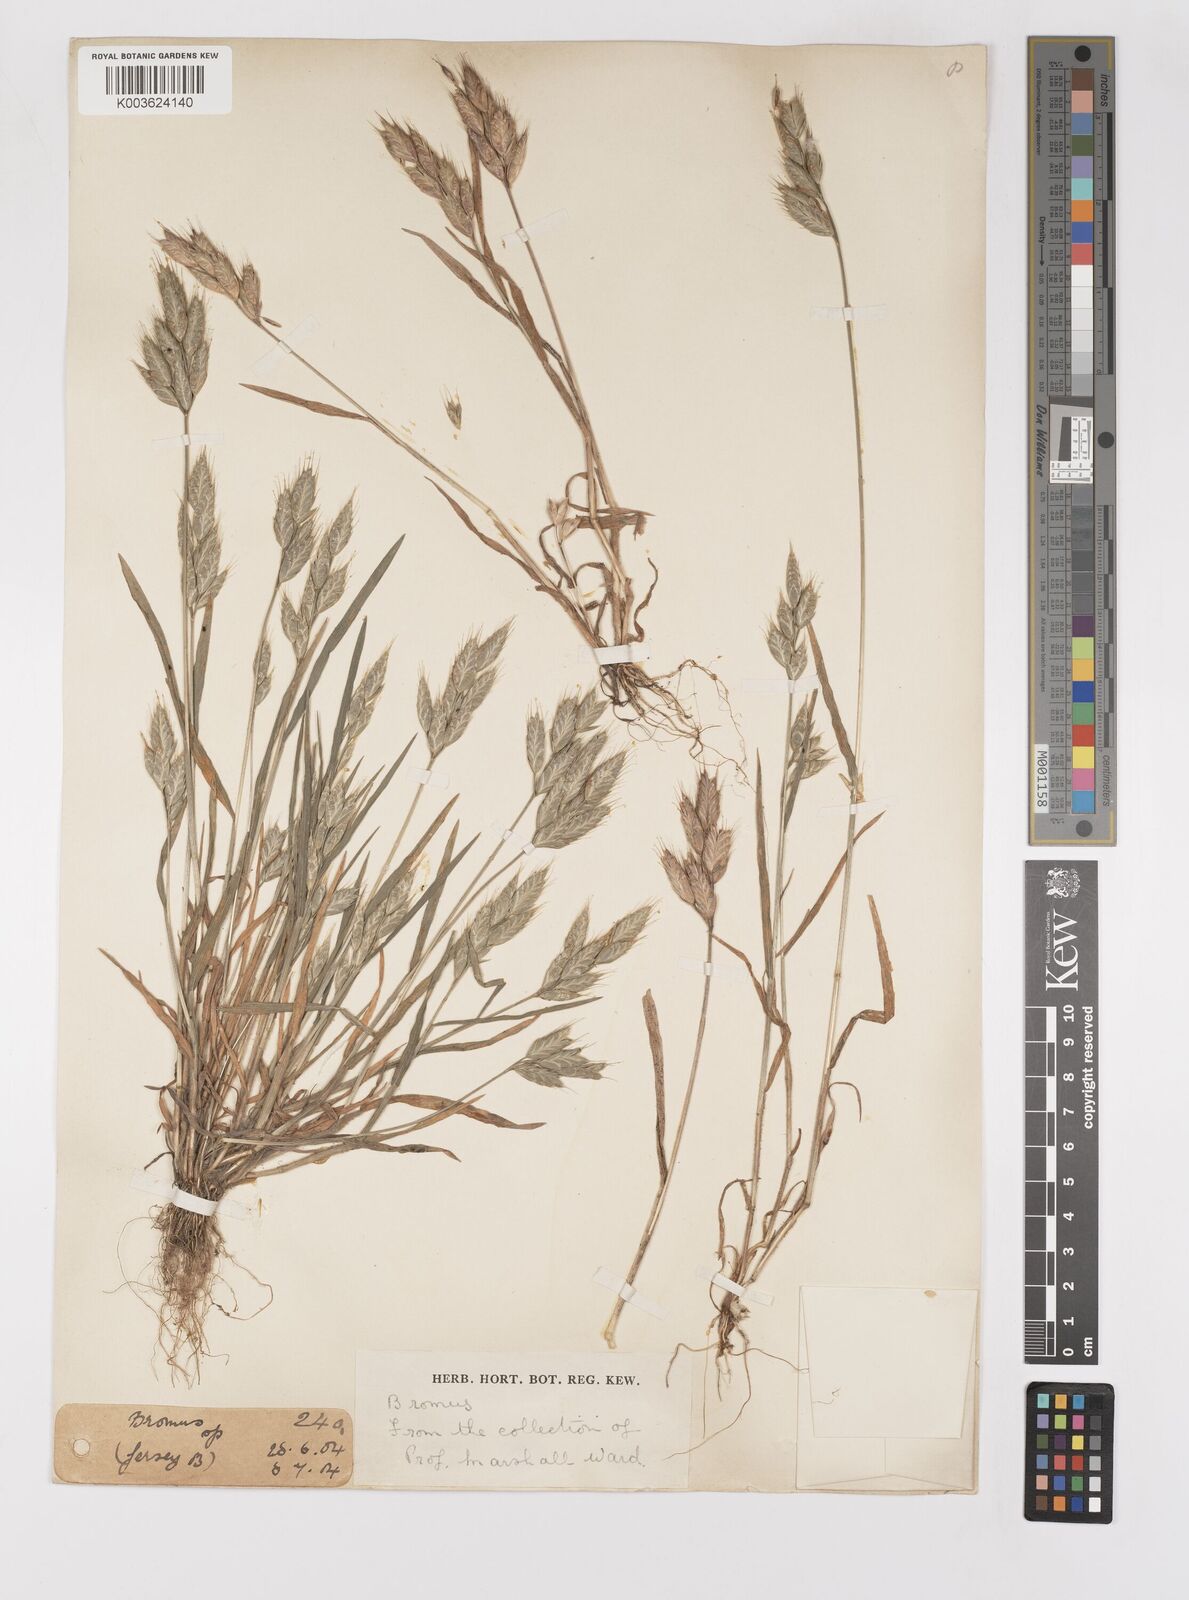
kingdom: Plantae
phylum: Tracheophyta
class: Liliopsida
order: Poales
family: Poaceae
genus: Bromus
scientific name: Bromus hordeaceus
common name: Soft brome
